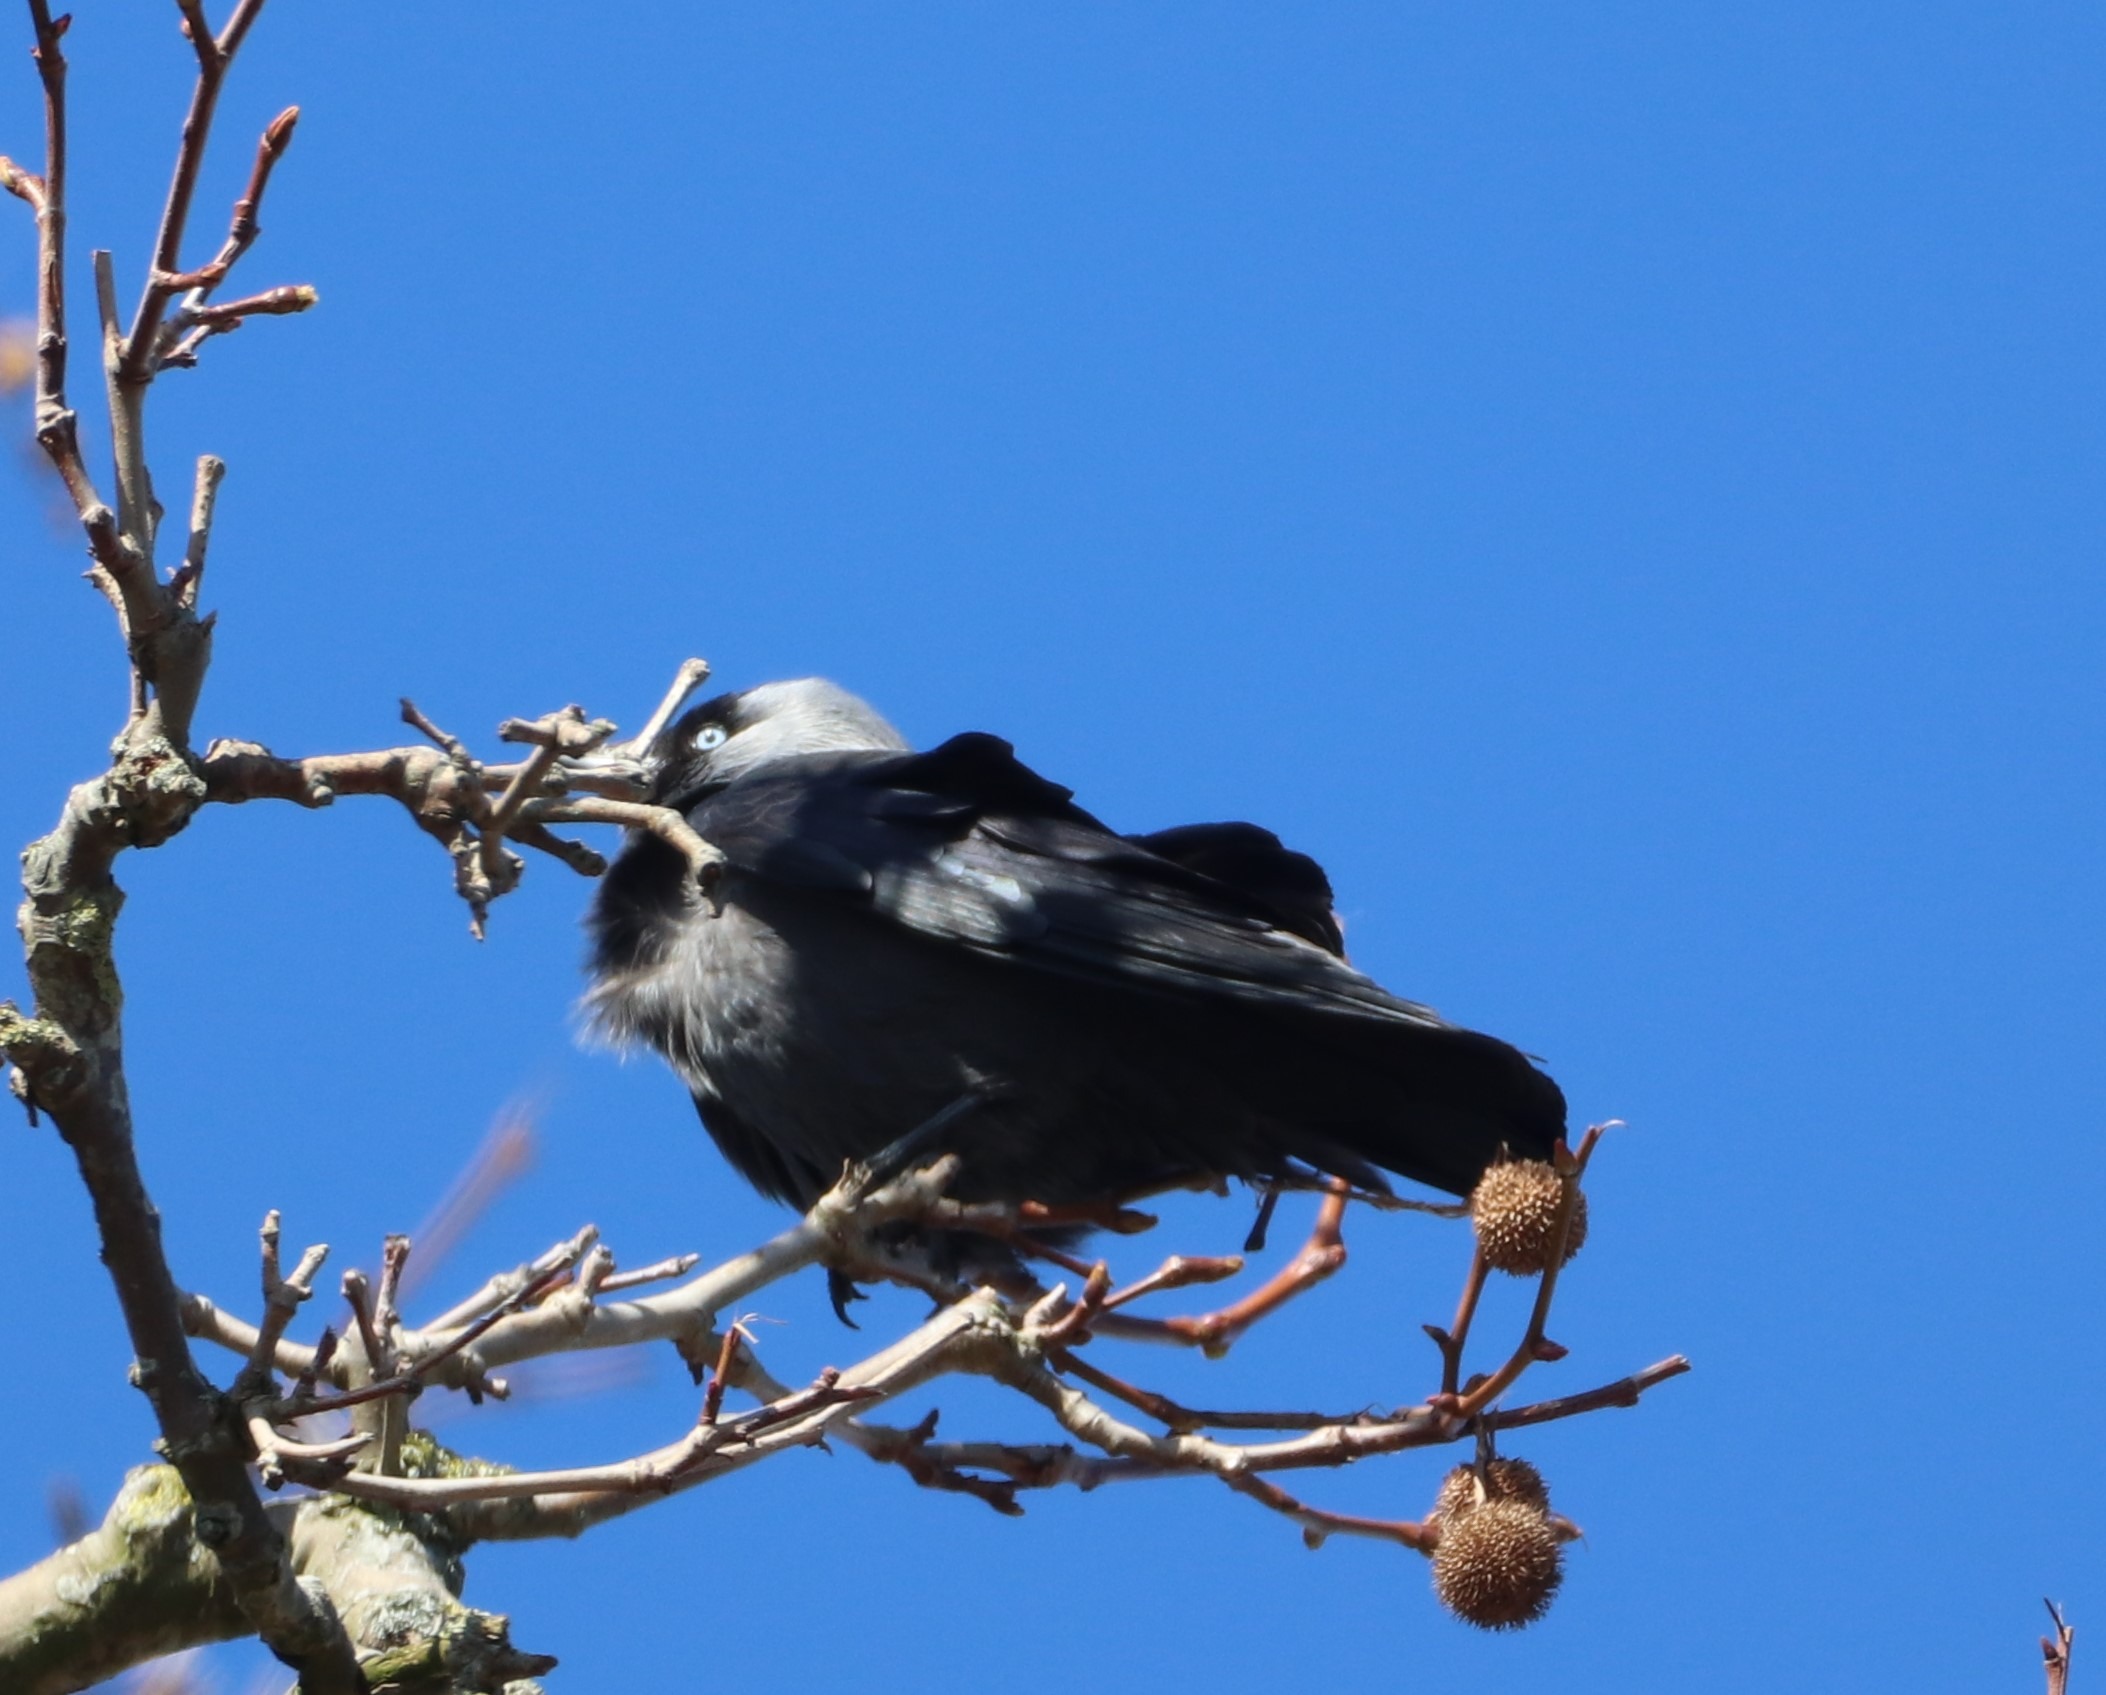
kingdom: Animalia
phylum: Chordata
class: Aves
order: Passeriformes
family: Corvidae
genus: Coloeus
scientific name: Coloeus monedula
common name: Allike
